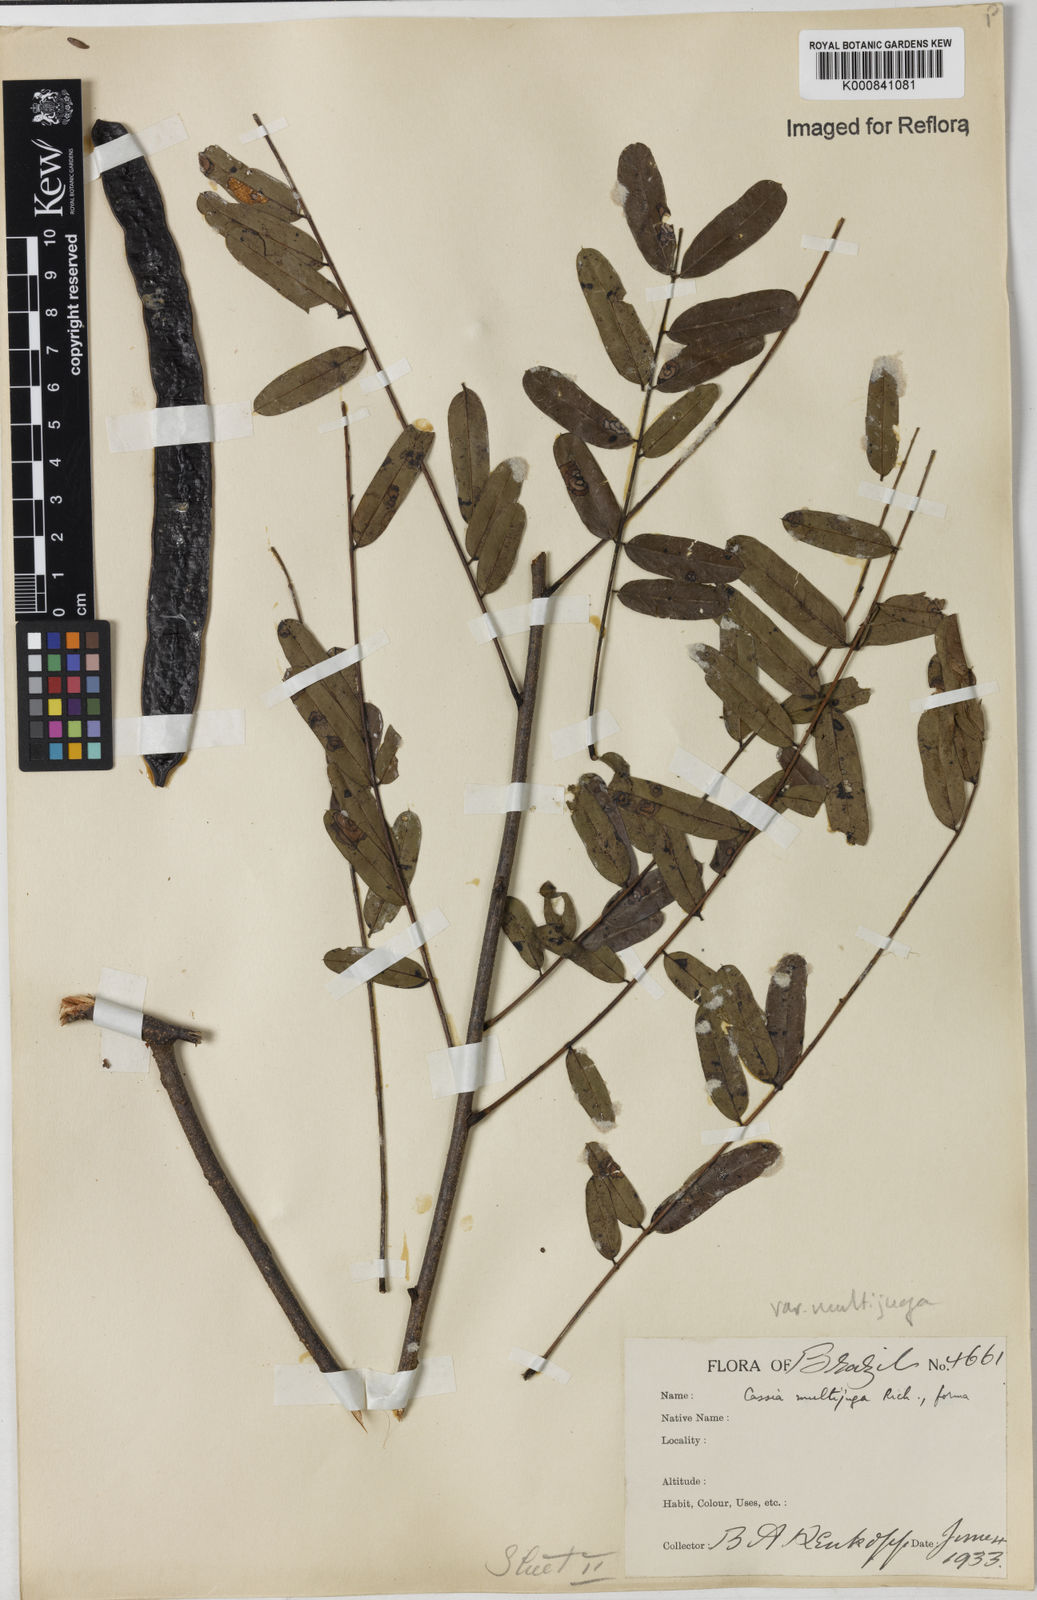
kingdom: Plantae
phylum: Tracheophyta
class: Magnoliopsida
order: Fabales
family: Fabaceae
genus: Senna
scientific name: Senna multijuga
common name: False sicklepod
